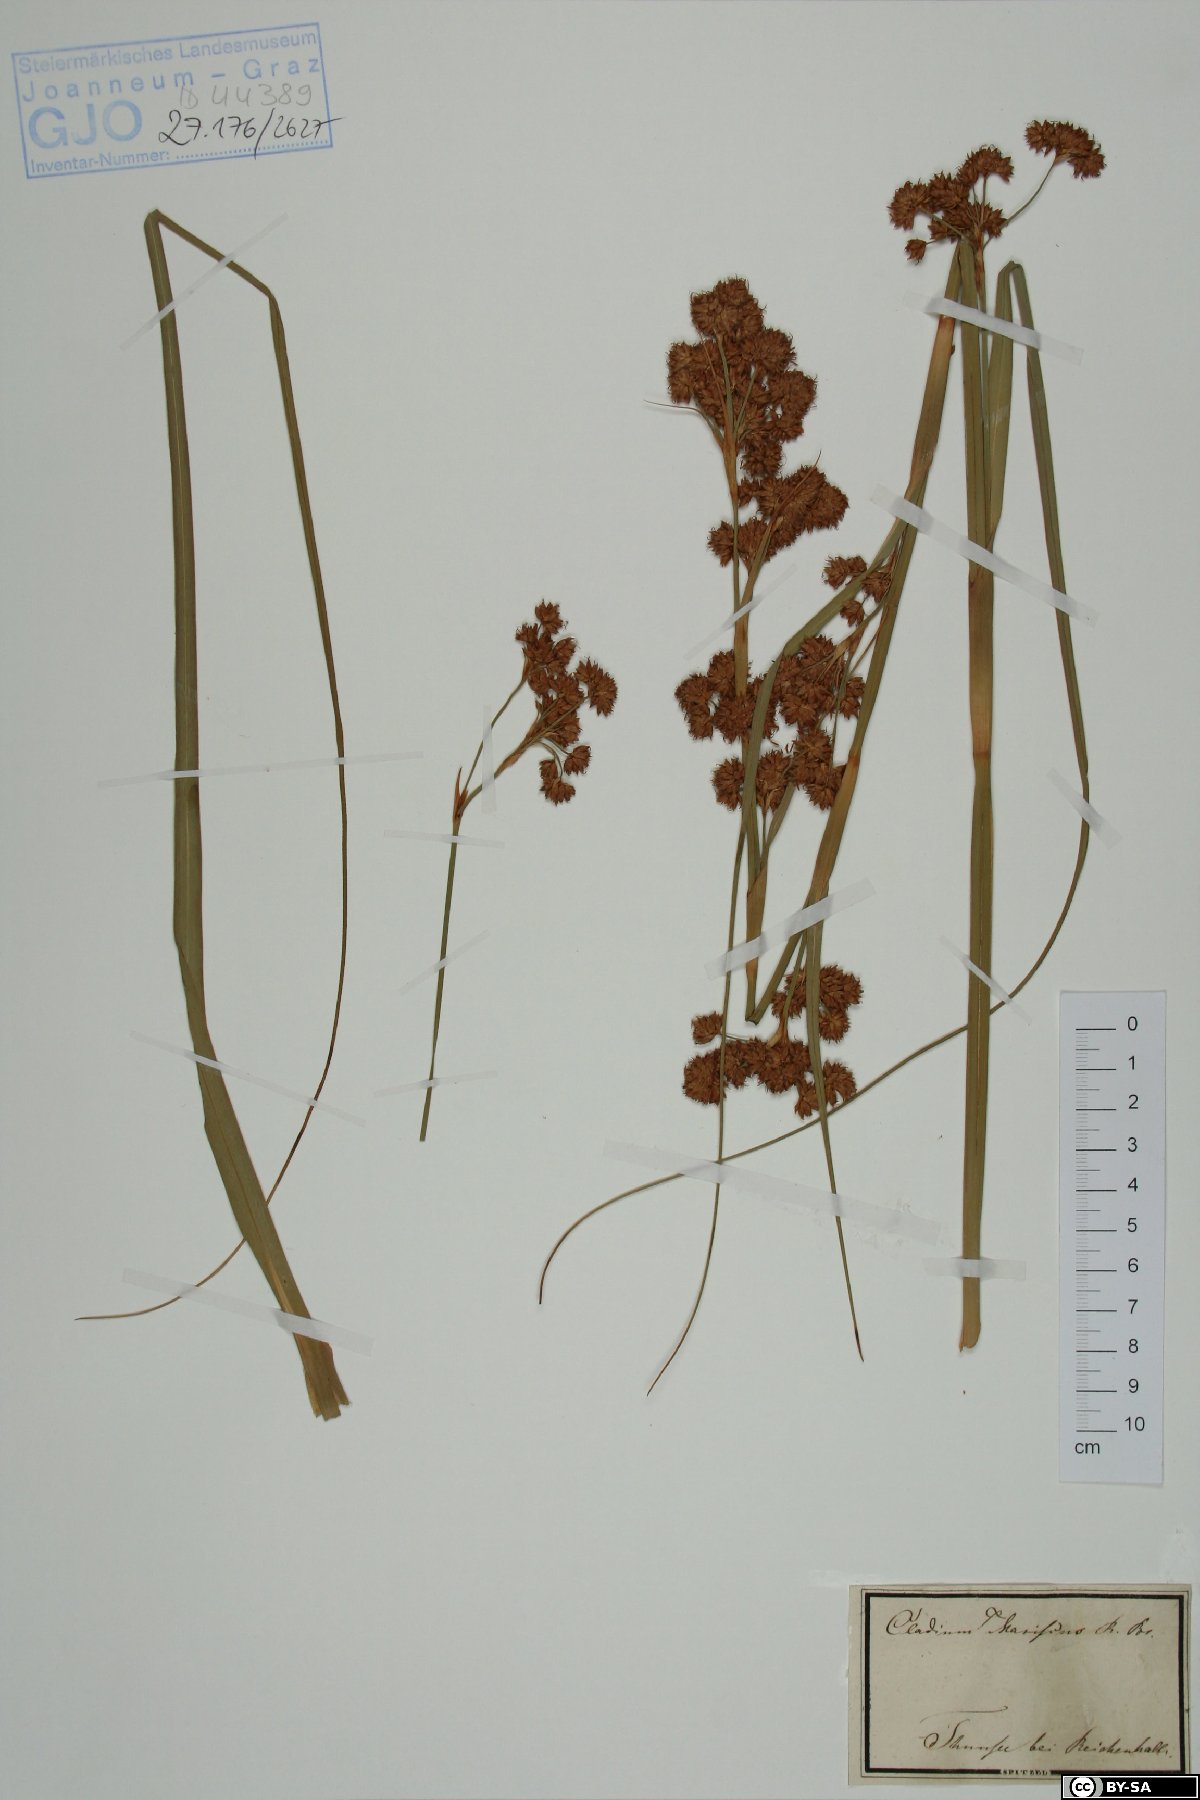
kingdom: Plantae
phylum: Tracheophyta
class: Liliopsida
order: Poales
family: Cyperaceae
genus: Cladium
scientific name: Cladium mariscus
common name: Great fen-sedge
